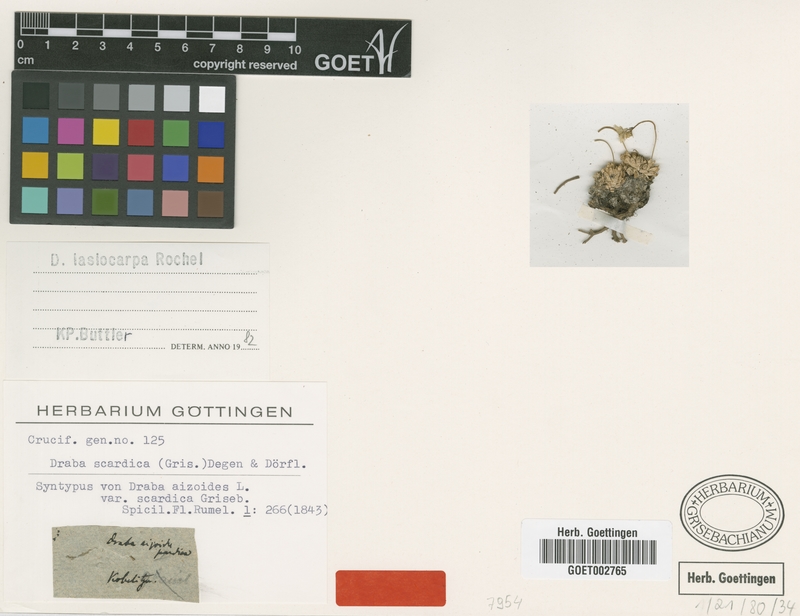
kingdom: Plantae
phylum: Tracheophyta
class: Magnoliopsida
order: Brassicales
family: Brassicaceae
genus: Draba
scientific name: Draba lasiocarpa
